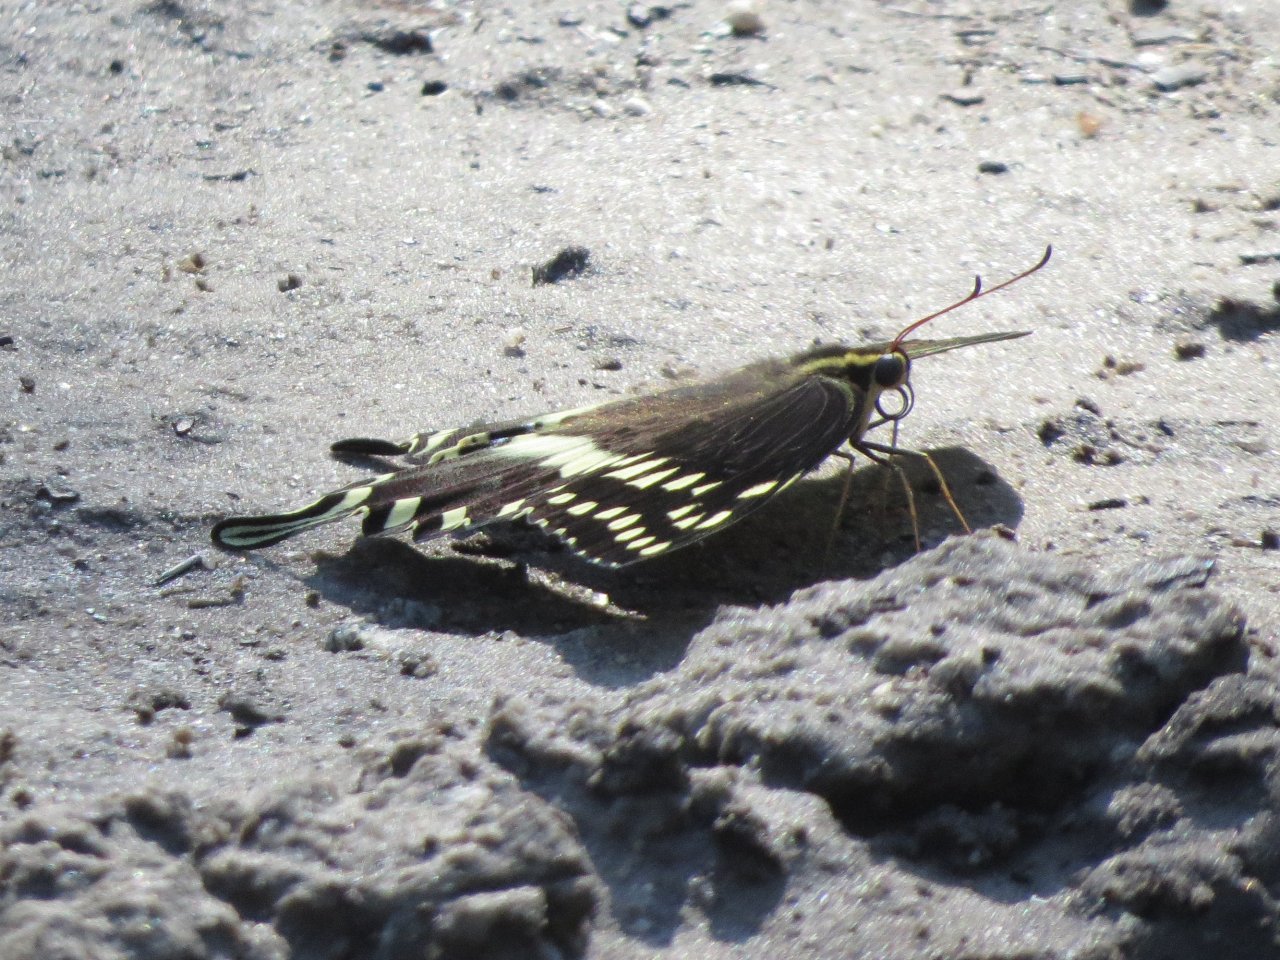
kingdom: Animalia
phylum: Arthropoda
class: Insecta
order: Lepidoptera
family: Papilionidae
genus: Pterourus
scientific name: Pterourus palamedes
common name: Palamedes Swallowtail
